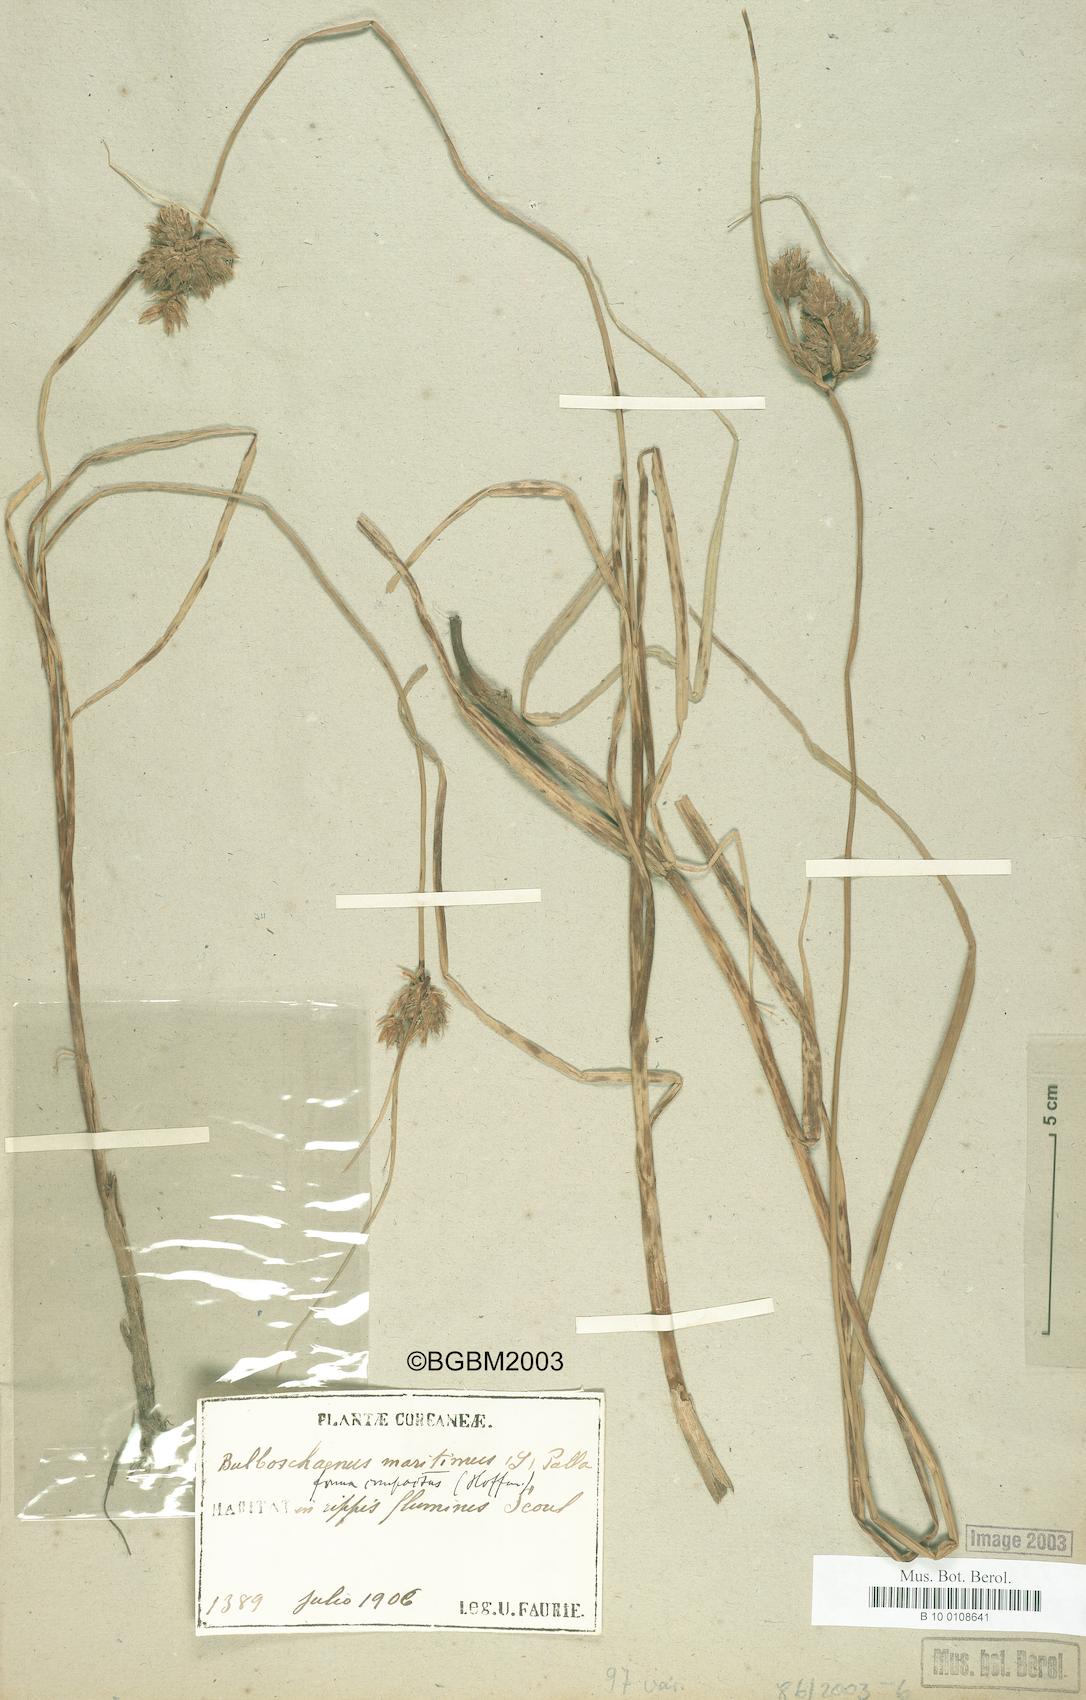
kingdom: Plantae
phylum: Tracheophyta
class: Liliopsida
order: Poales
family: Cyperaceae
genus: Bolboschoenus
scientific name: Bolboschoenus maritimus
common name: Sea club-rush
